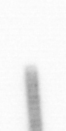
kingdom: Chromista
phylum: Ochrophyta
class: Bacillariophyceae
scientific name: Bacillariophyceae
